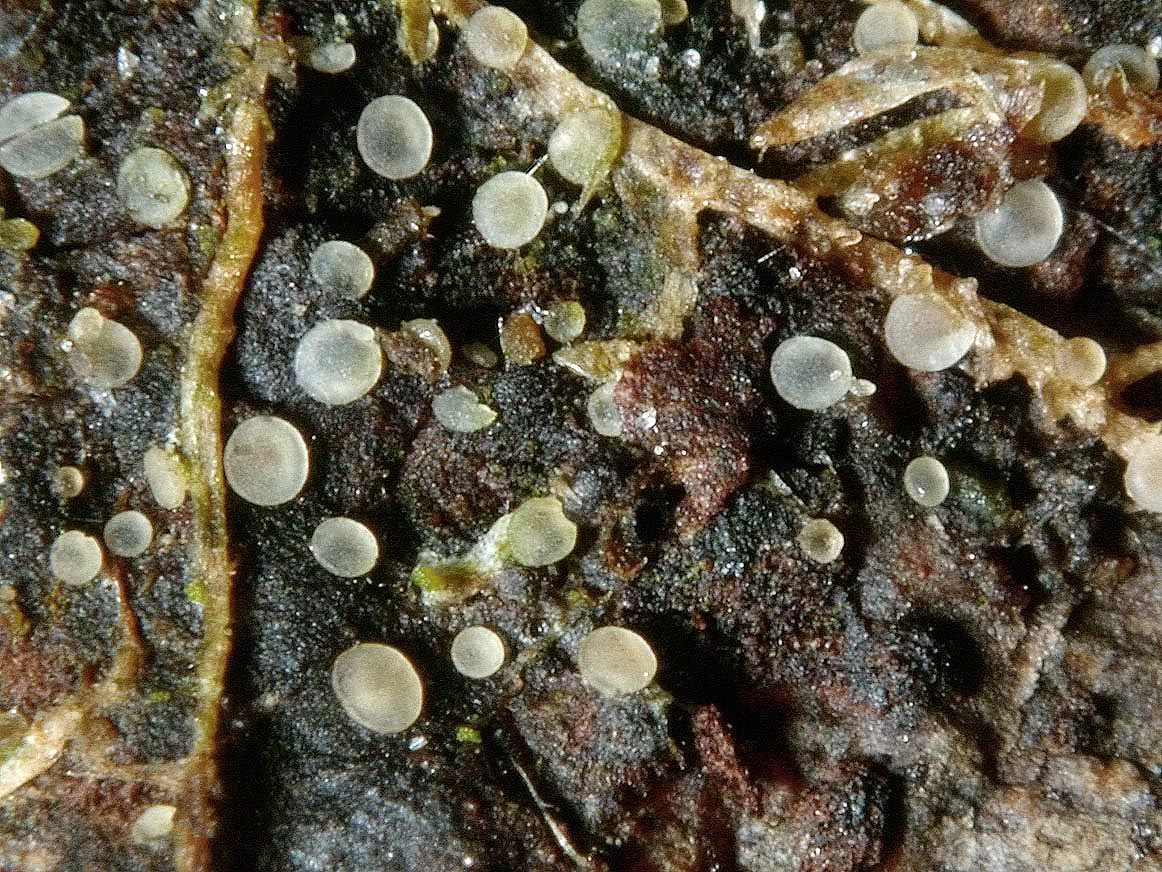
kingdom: Fungi
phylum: Ascomycota
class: Orbiliomycetes
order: Orbiliales
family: Orbiliaceae
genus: Orbilia
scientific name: Orbilia epipora
